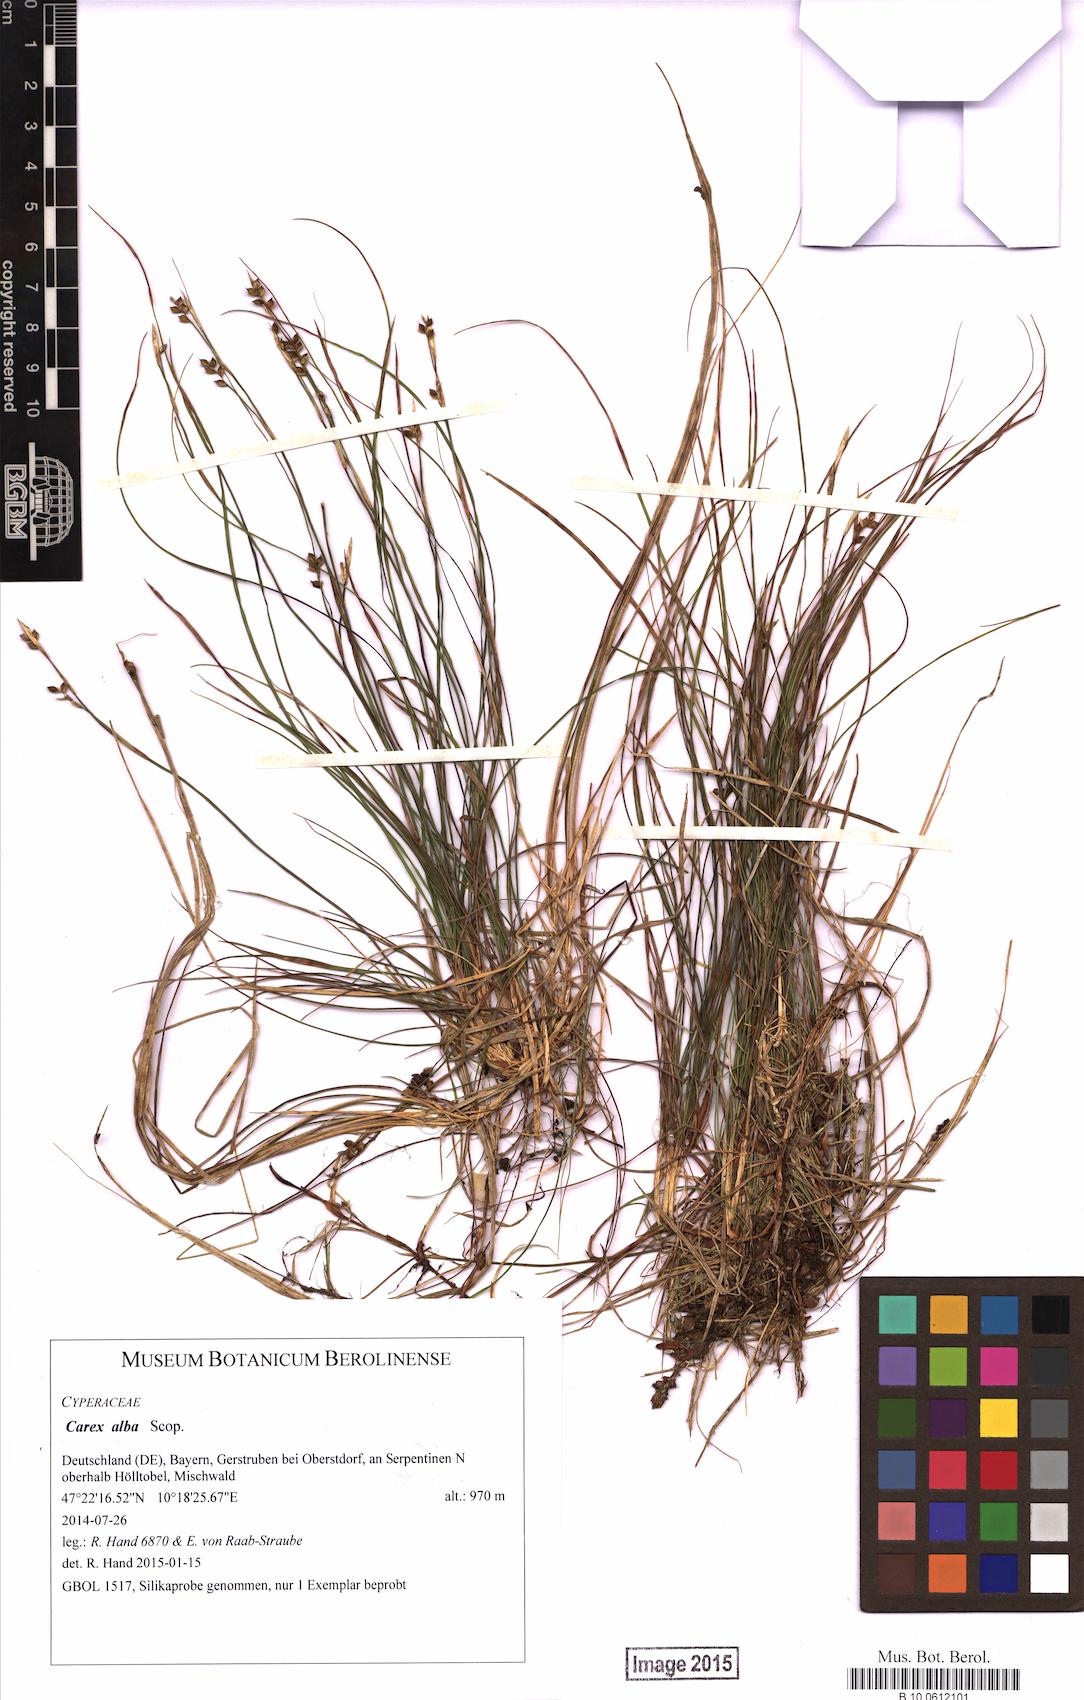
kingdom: Plantae
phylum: Tracheophyta
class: Liliopsida
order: Poales
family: Cyperaceae
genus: Carex
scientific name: Carex alba
